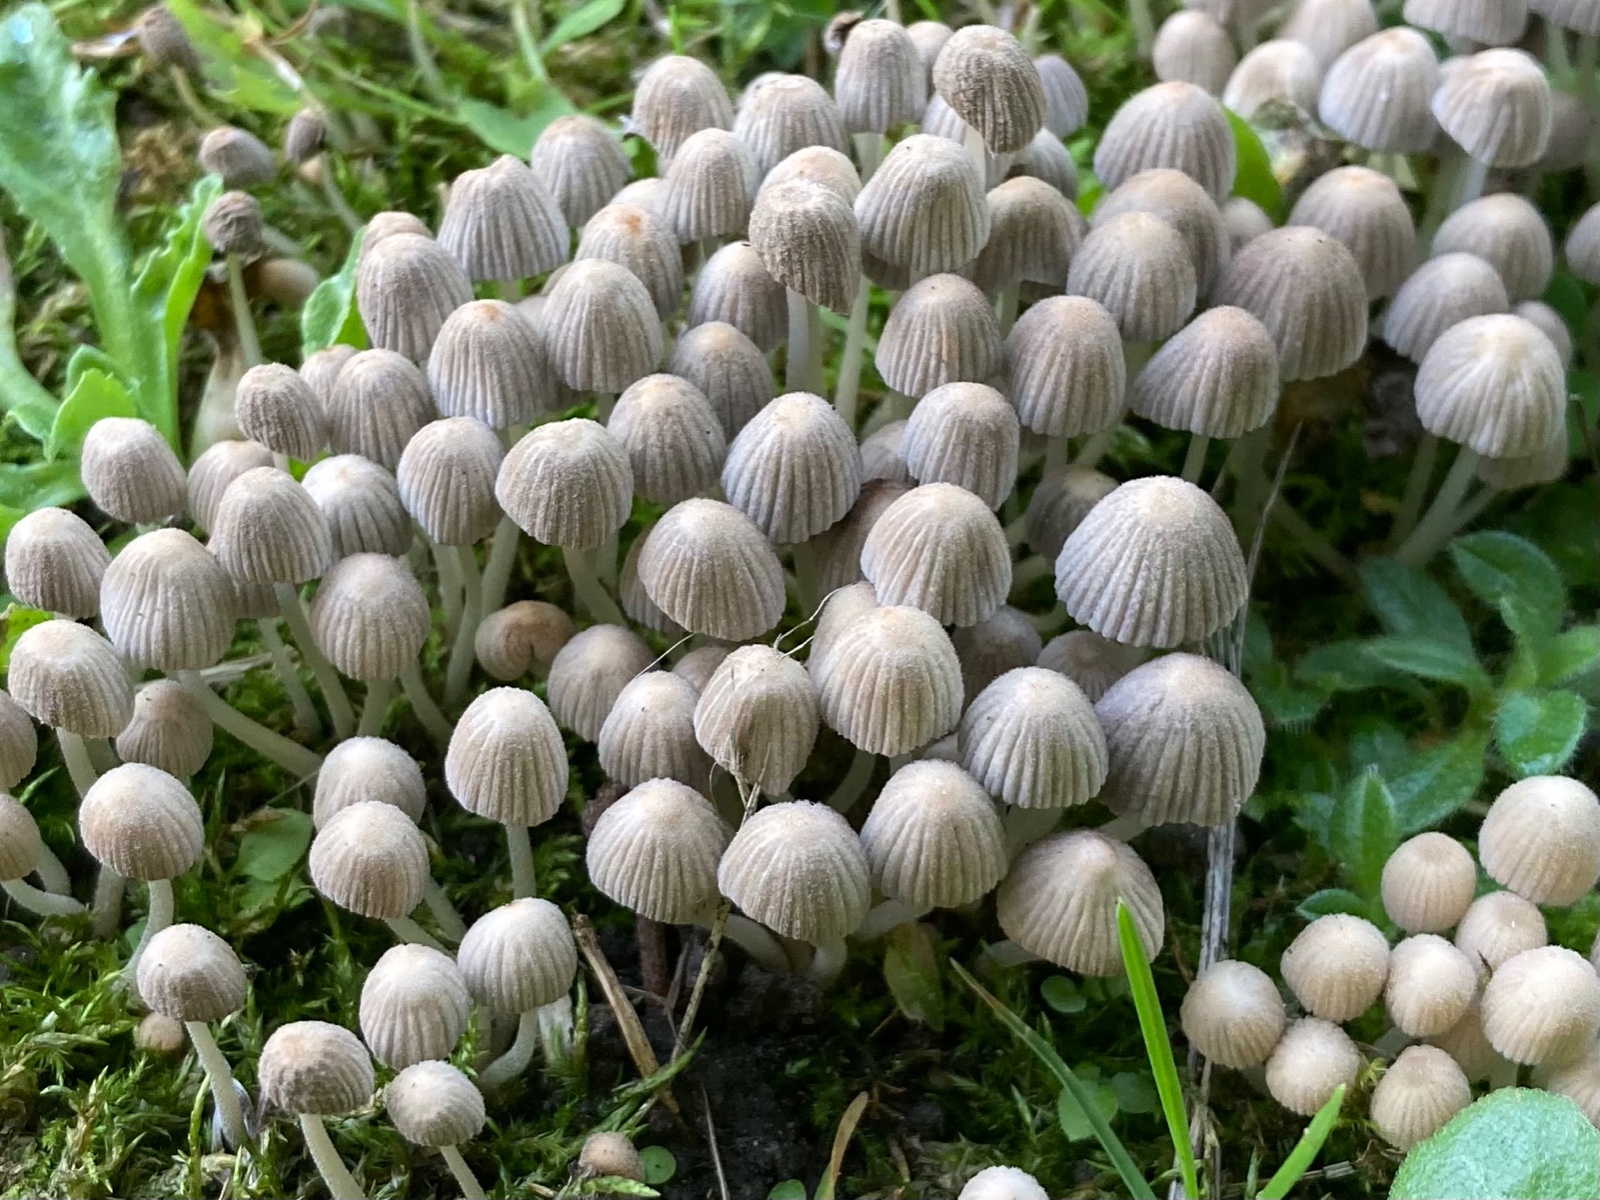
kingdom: Fungi
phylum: Basidiomycota
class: Agaricomycetes
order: Agaricales
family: Psathyrellaceae
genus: Coprinellus
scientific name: Coprinellus disseminatus
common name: bredsået blækhat
